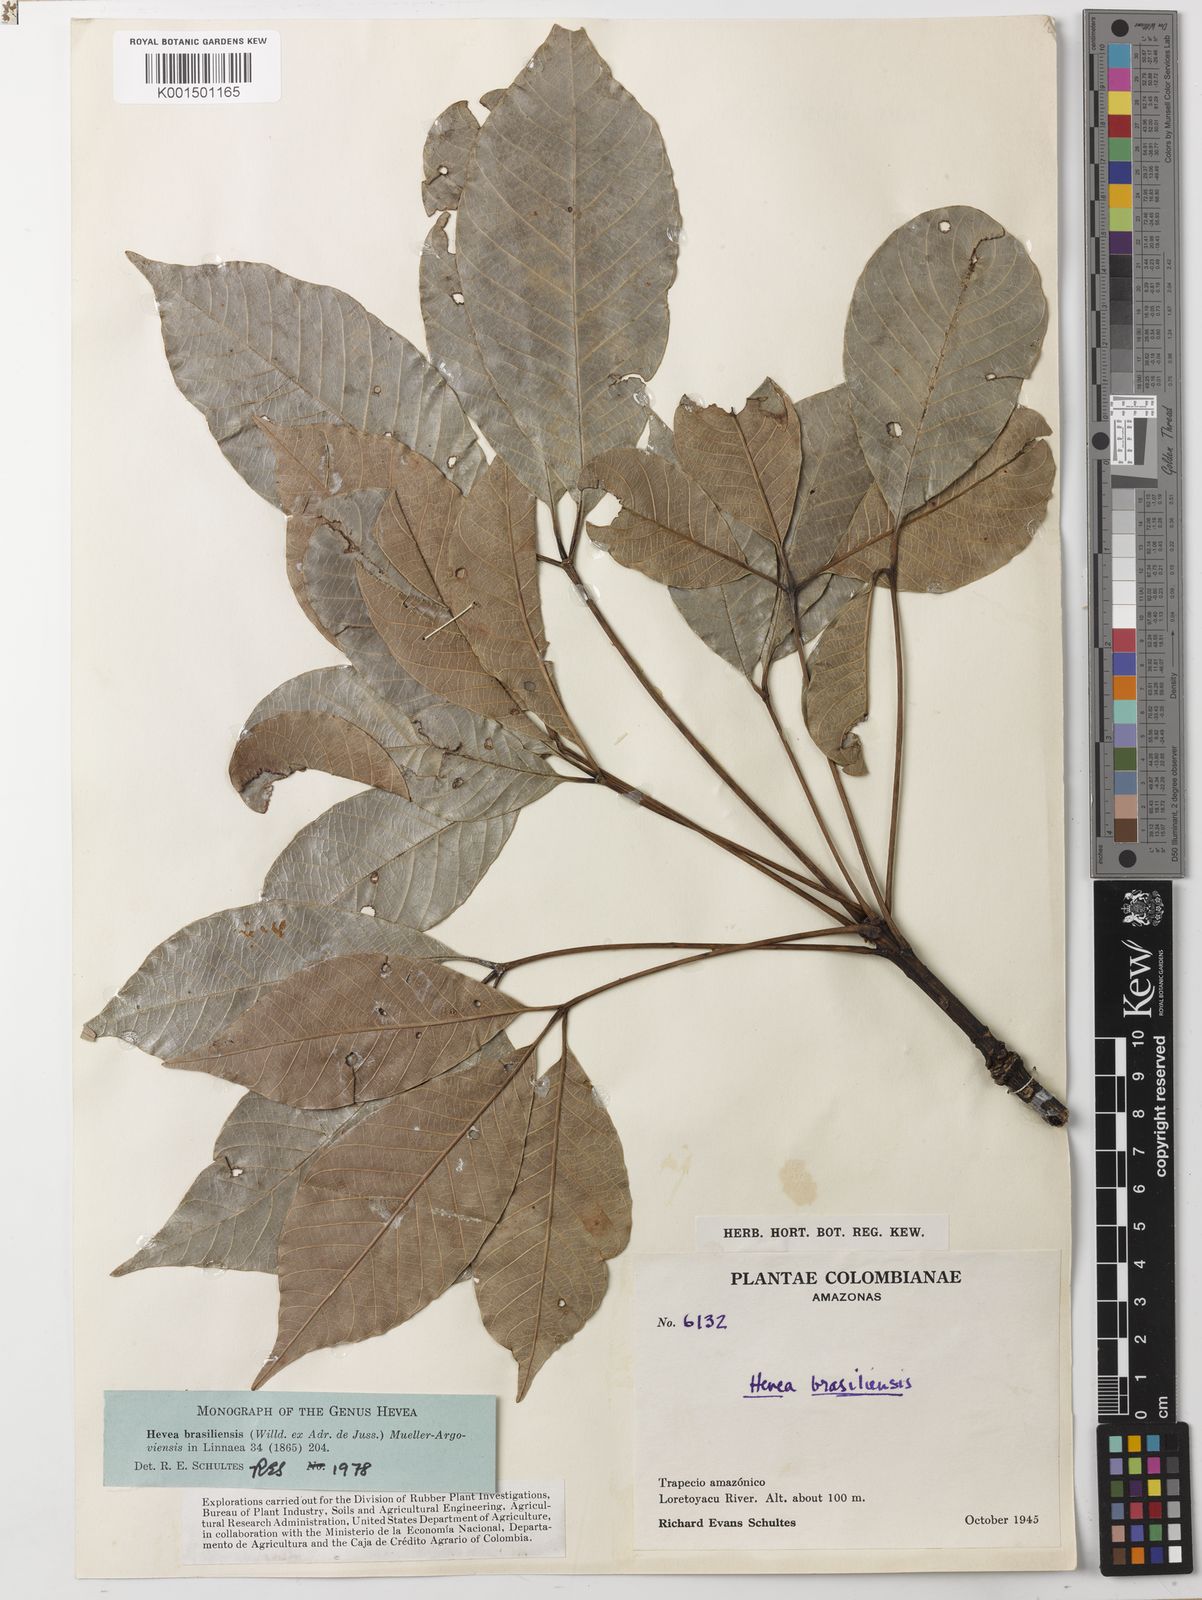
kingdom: Plantae
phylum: Tracheophyta
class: Magnoliopsida
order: Malpighiales
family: Euphorbiaceae
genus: Hevea
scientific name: Hevea brasiliensis
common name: Natural rubber
